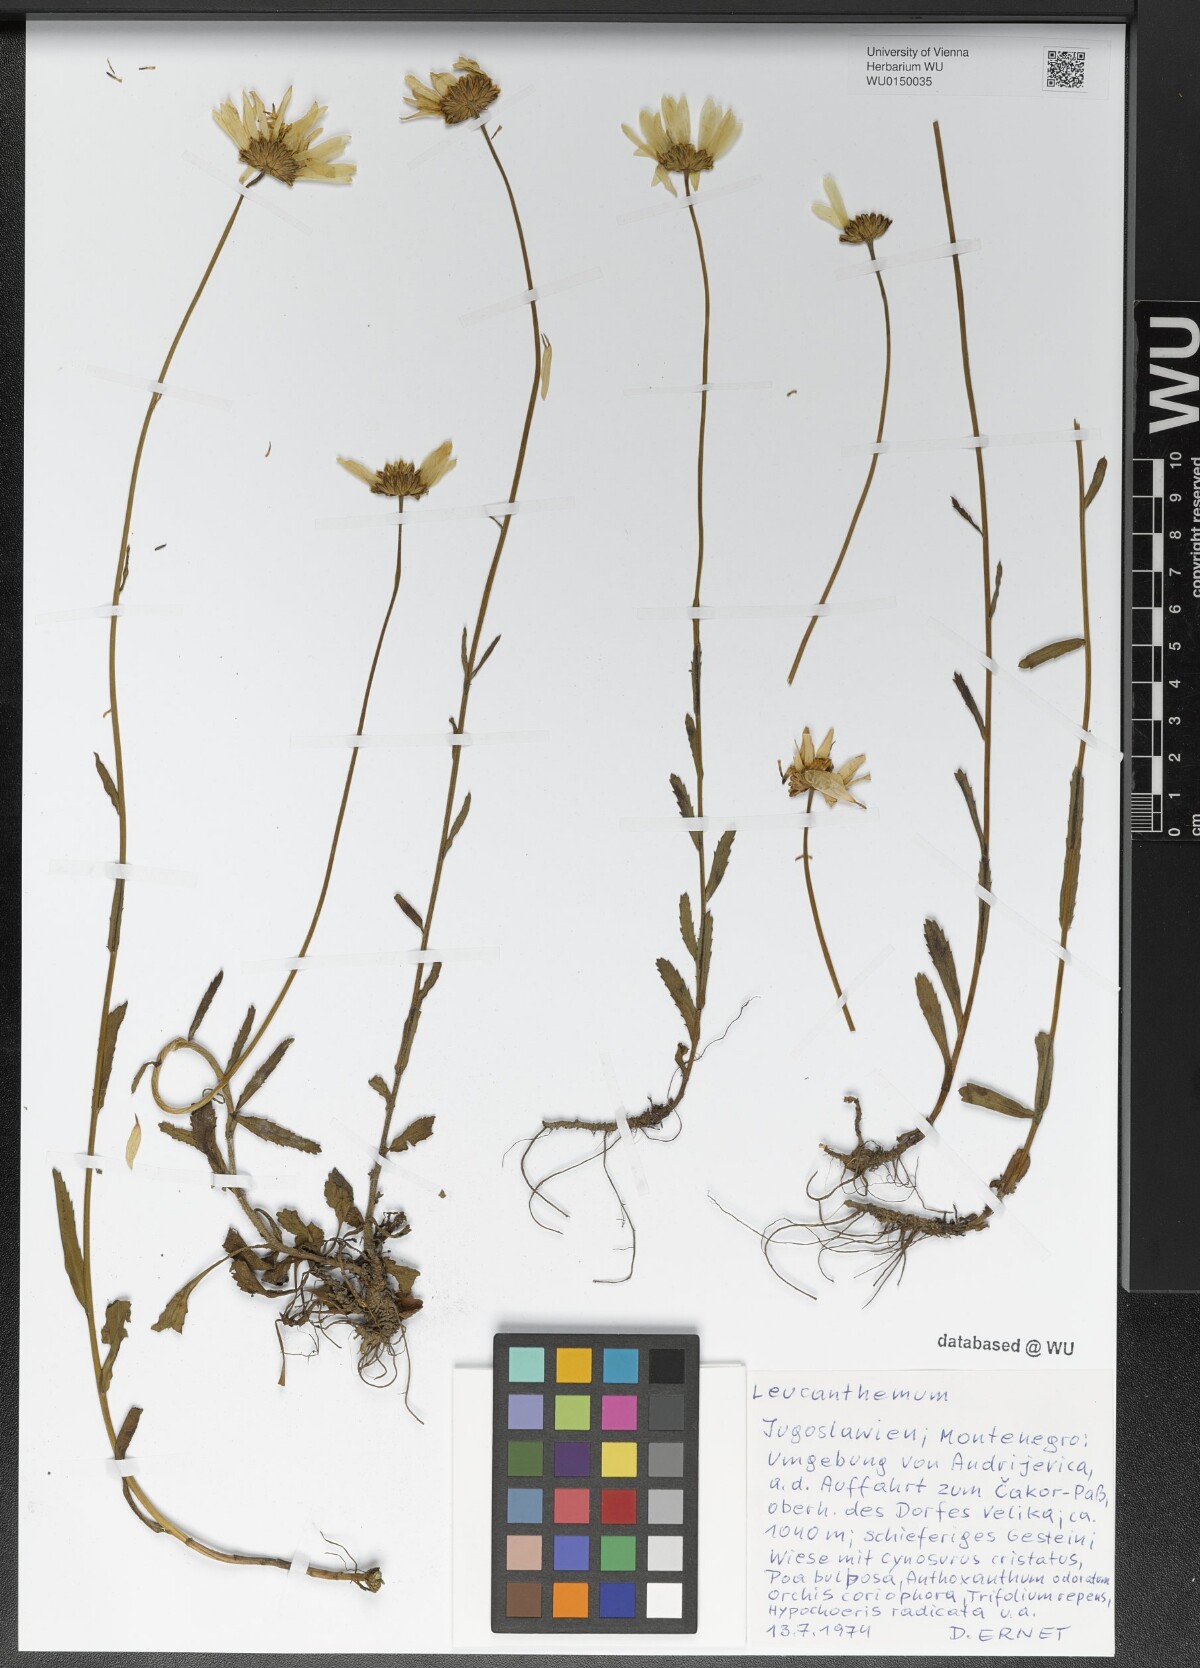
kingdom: Plantae
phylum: Tracheophyta
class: Magnoliopsida
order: Asterales
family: Asteraceae
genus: Leucanthemum
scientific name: Leucanthemum
